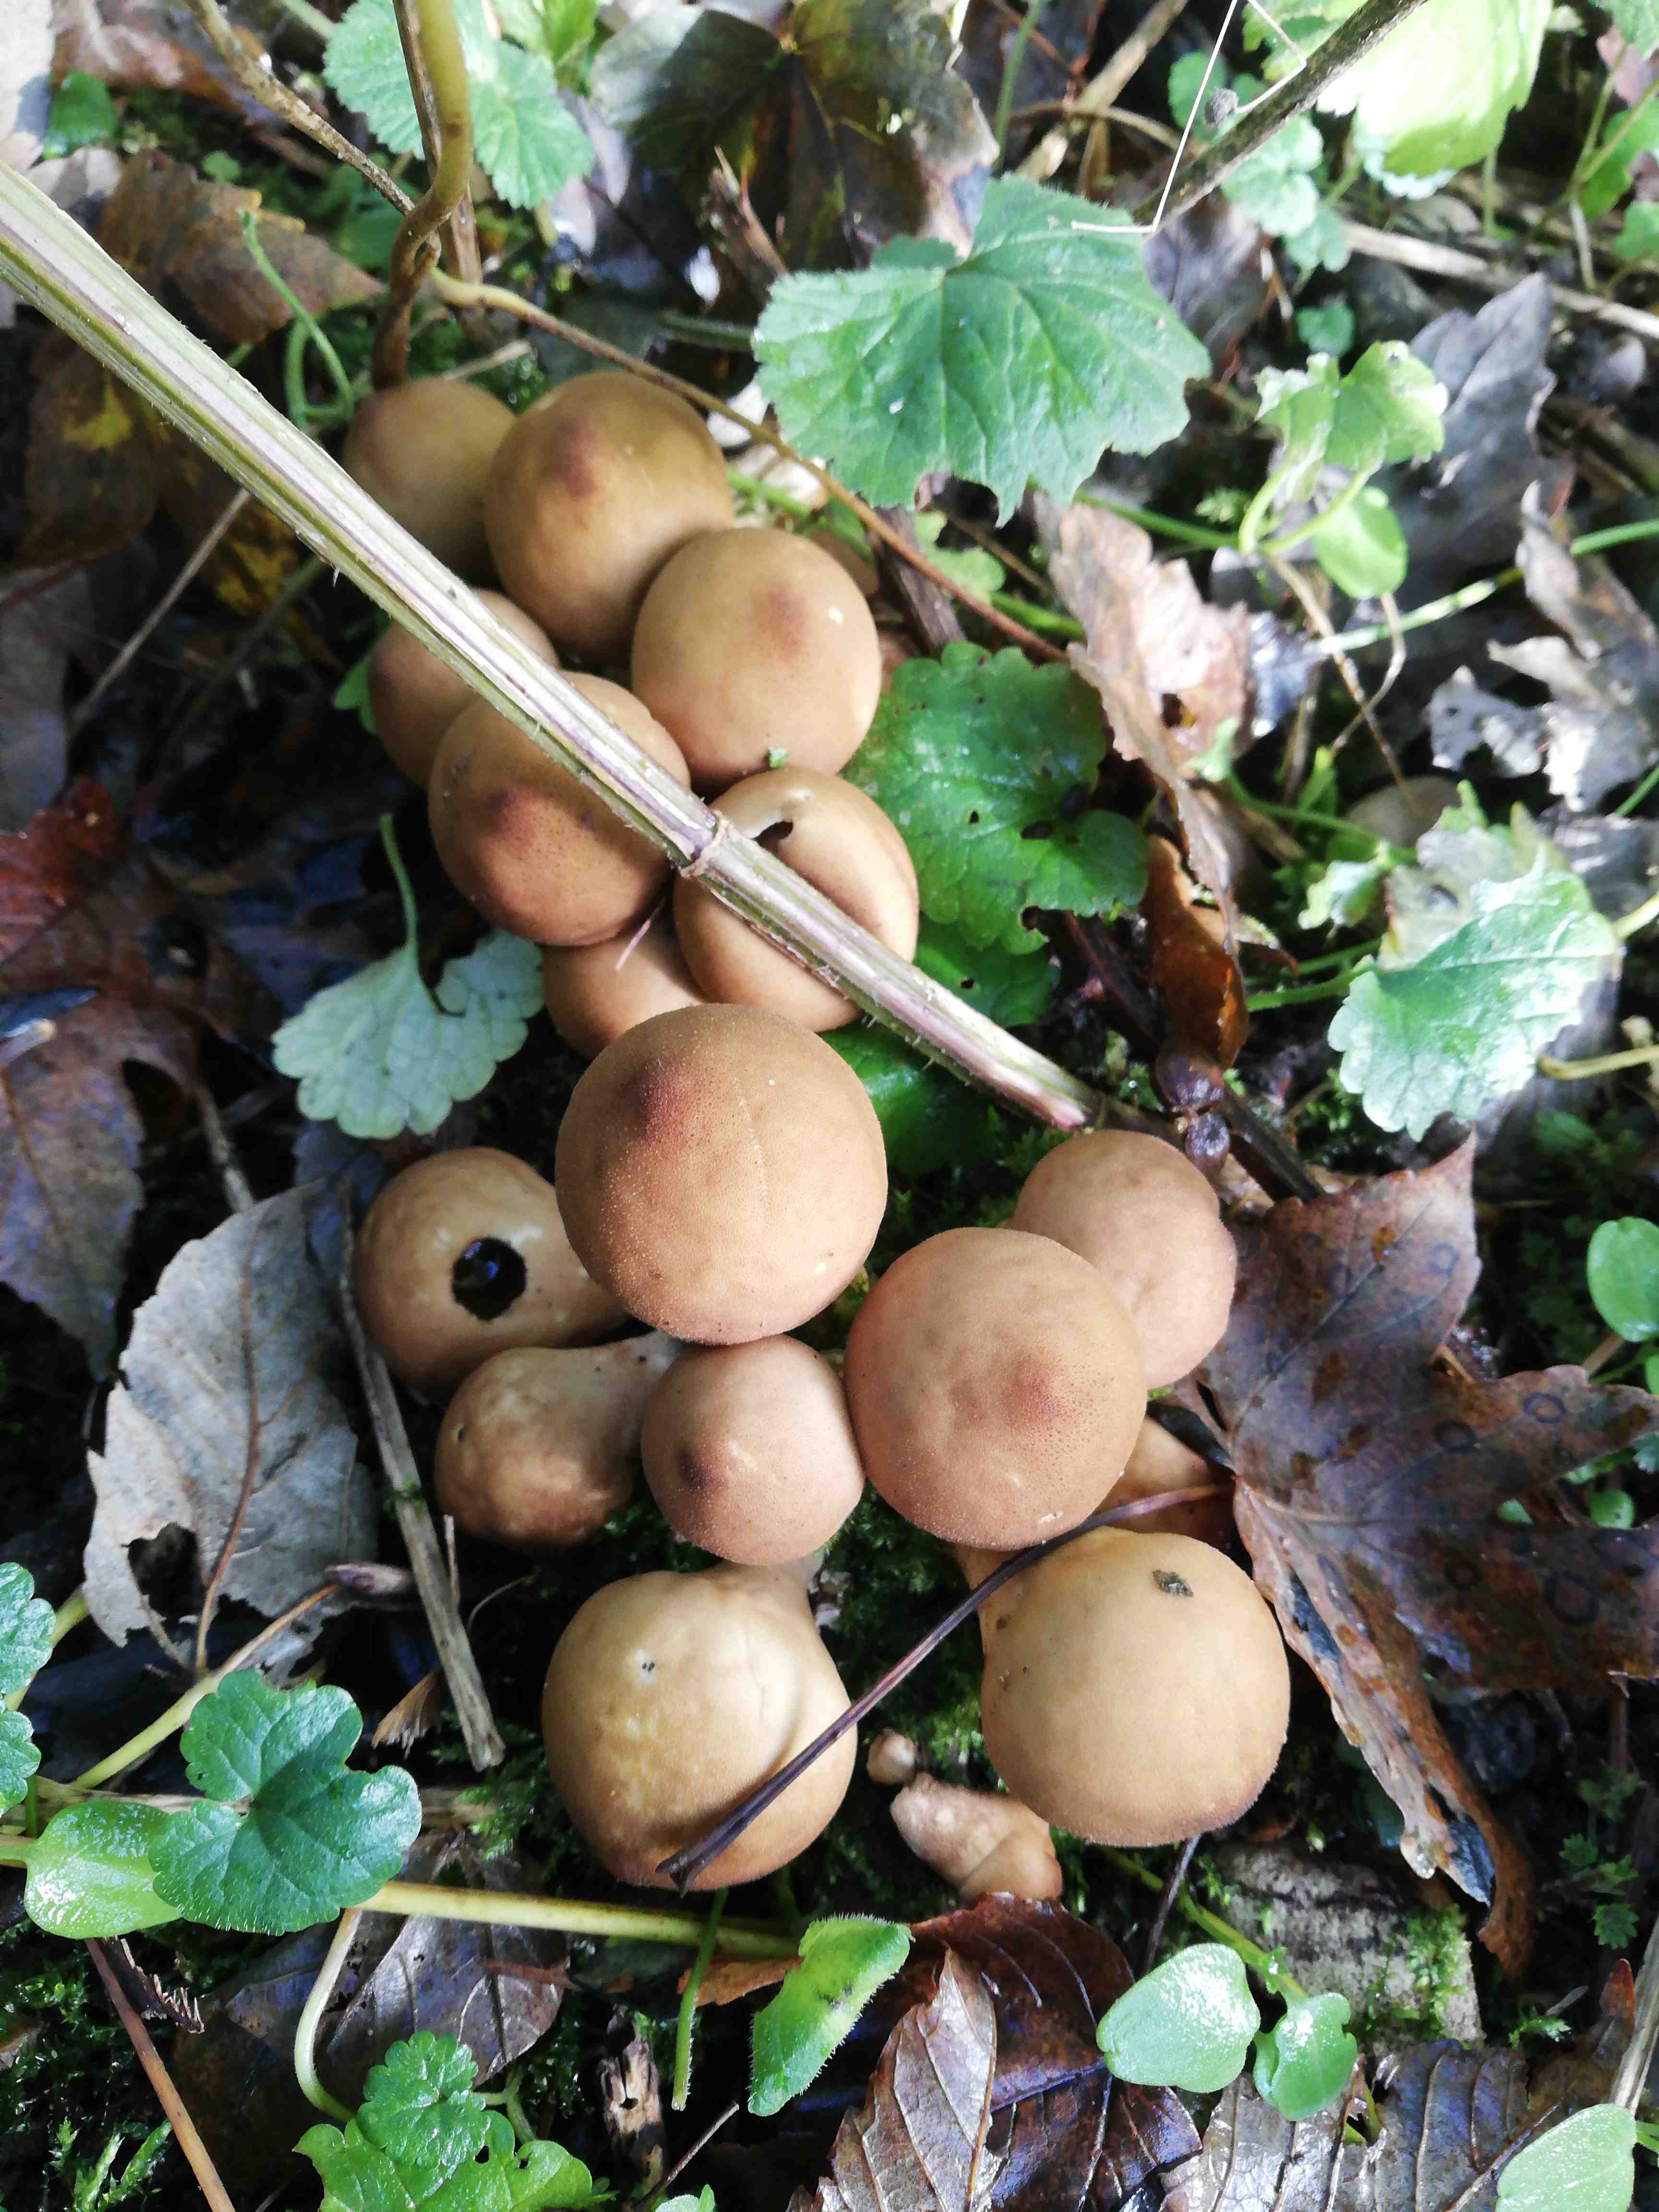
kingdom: Fungi
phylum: Basidiomycota
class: Agaricomycetes
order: Agaricales
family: Lycoperdaceae
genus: Apioperdon
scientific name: Apioperdon pyriforme
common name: pære-støvbold
